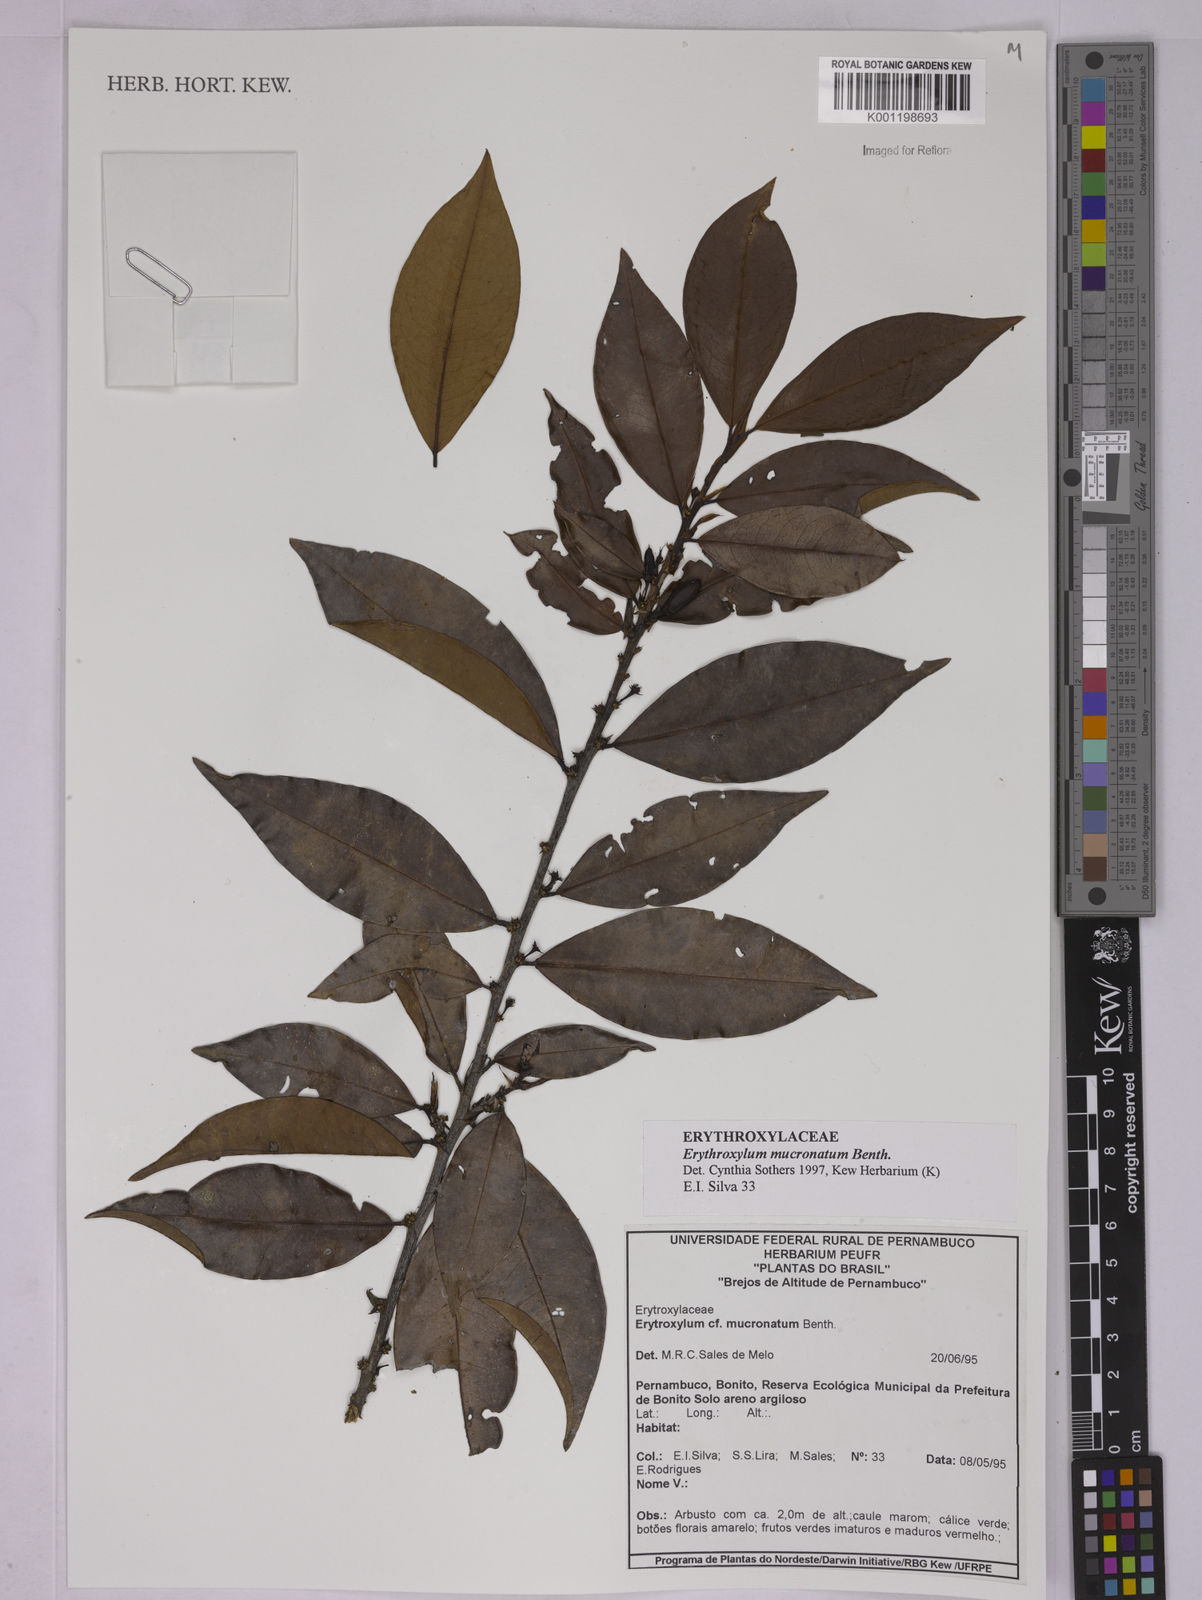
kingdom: Plantae
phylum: Tracheophyta
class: Magnoliopsida
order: Malpighiales
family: Erythroxylaceae
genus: Erythroxylum
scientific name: Erythroxylum mucronatum
